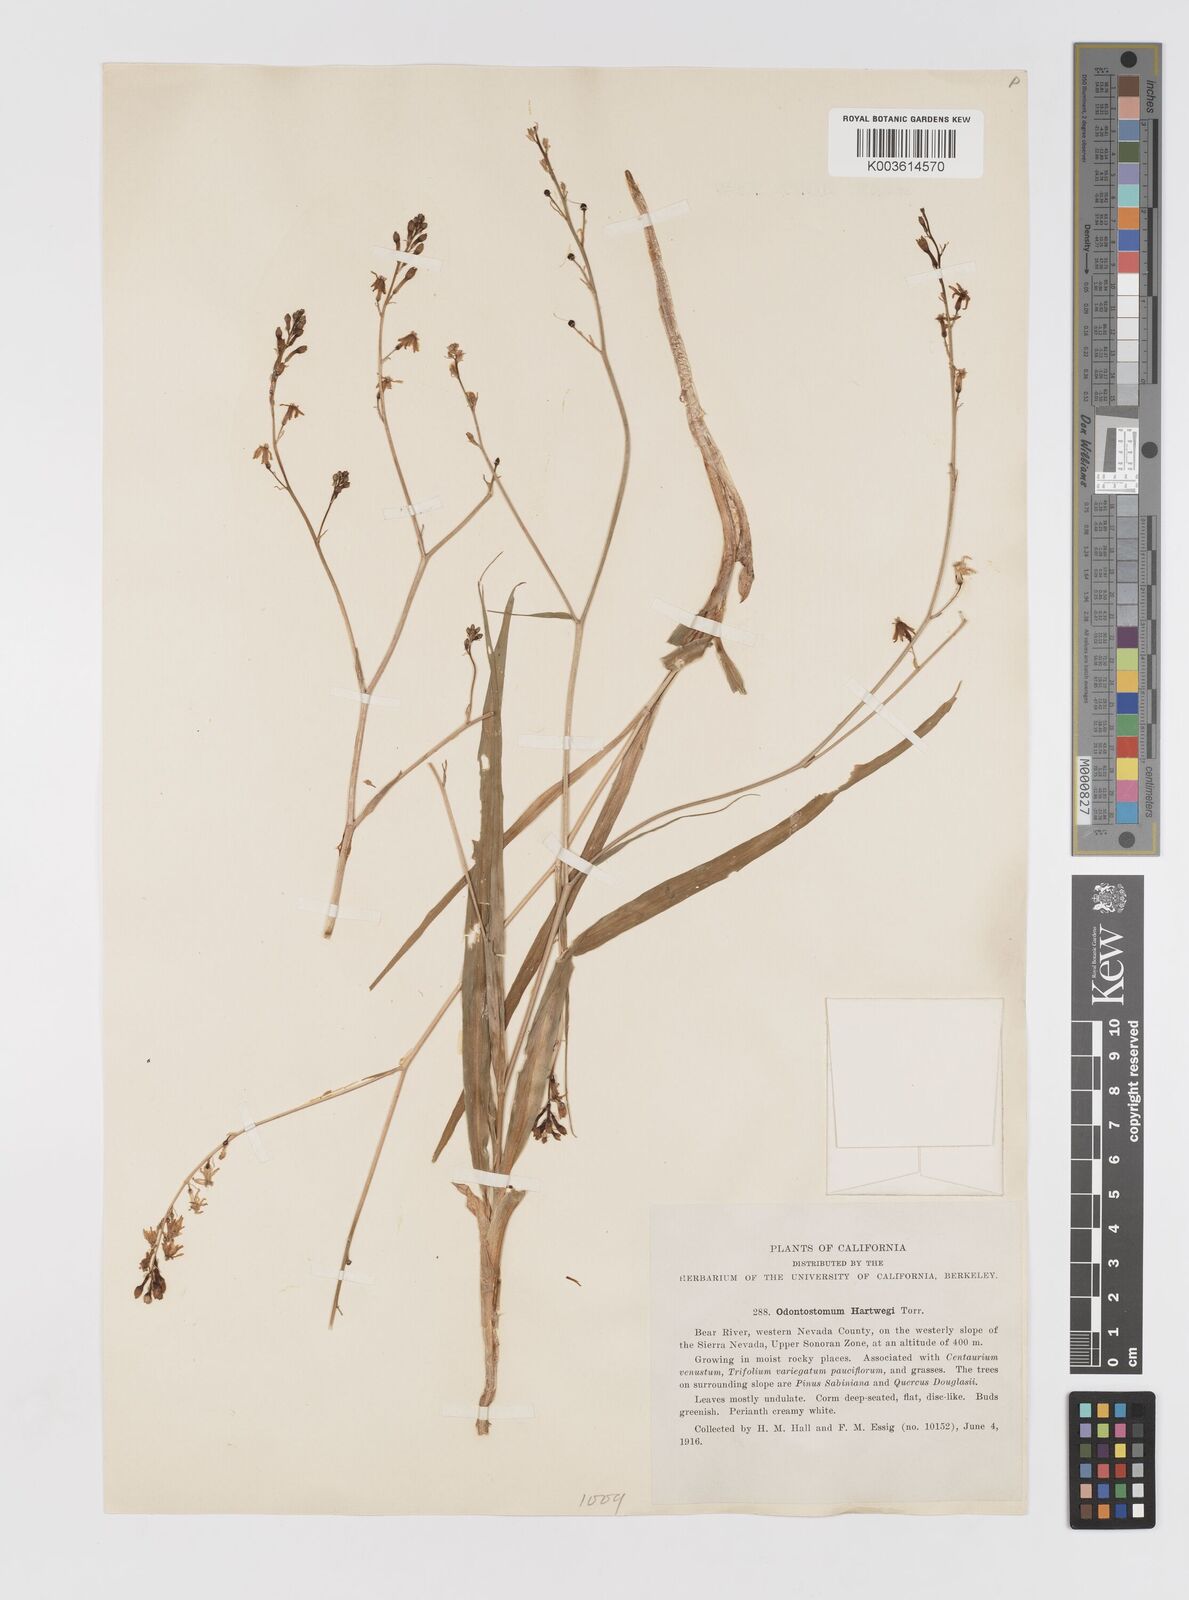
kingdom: Plantae
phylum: Tracheophyta
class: Liliopsida
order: Asparagales
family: Tecophilaeaceae
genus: Odontostomum
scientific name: Odontostomum hartwegii
